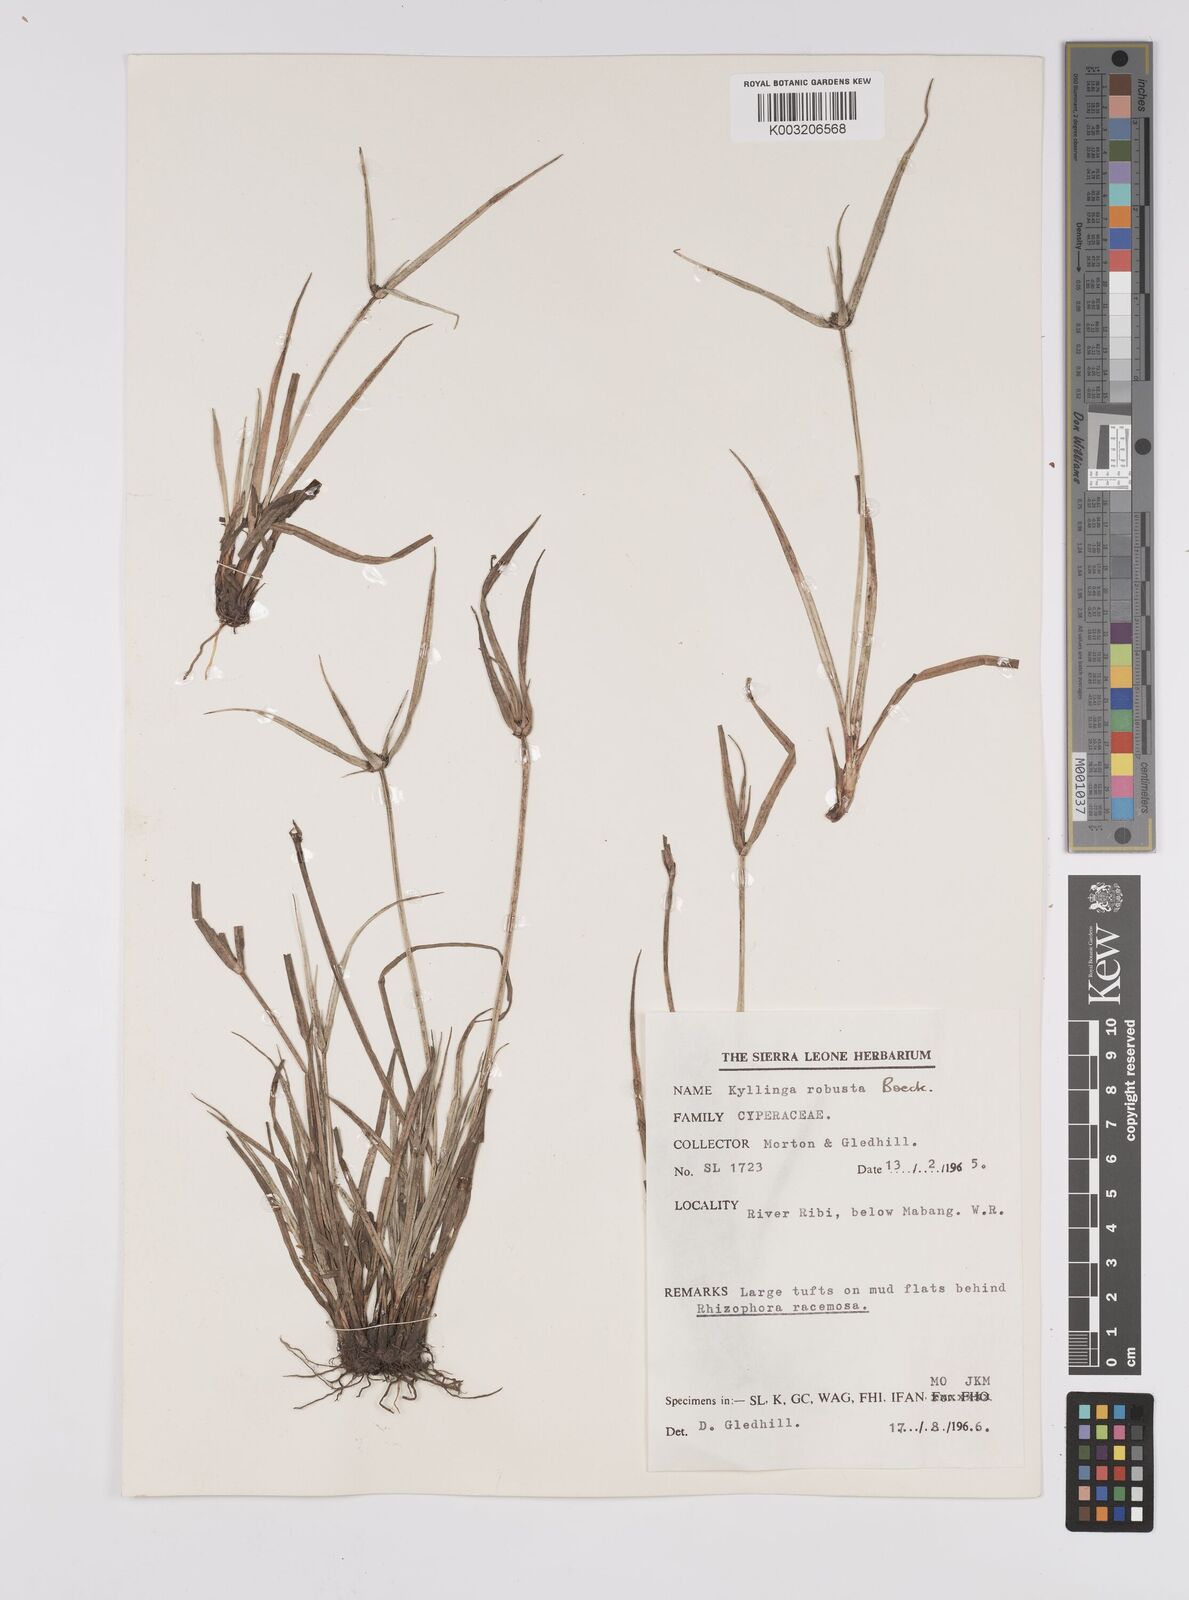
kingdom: Plantae
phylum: Tracheophyta
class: Liliopsida
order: Poales
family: Cyperaceae
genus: Cyperus
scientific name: Cyperus
